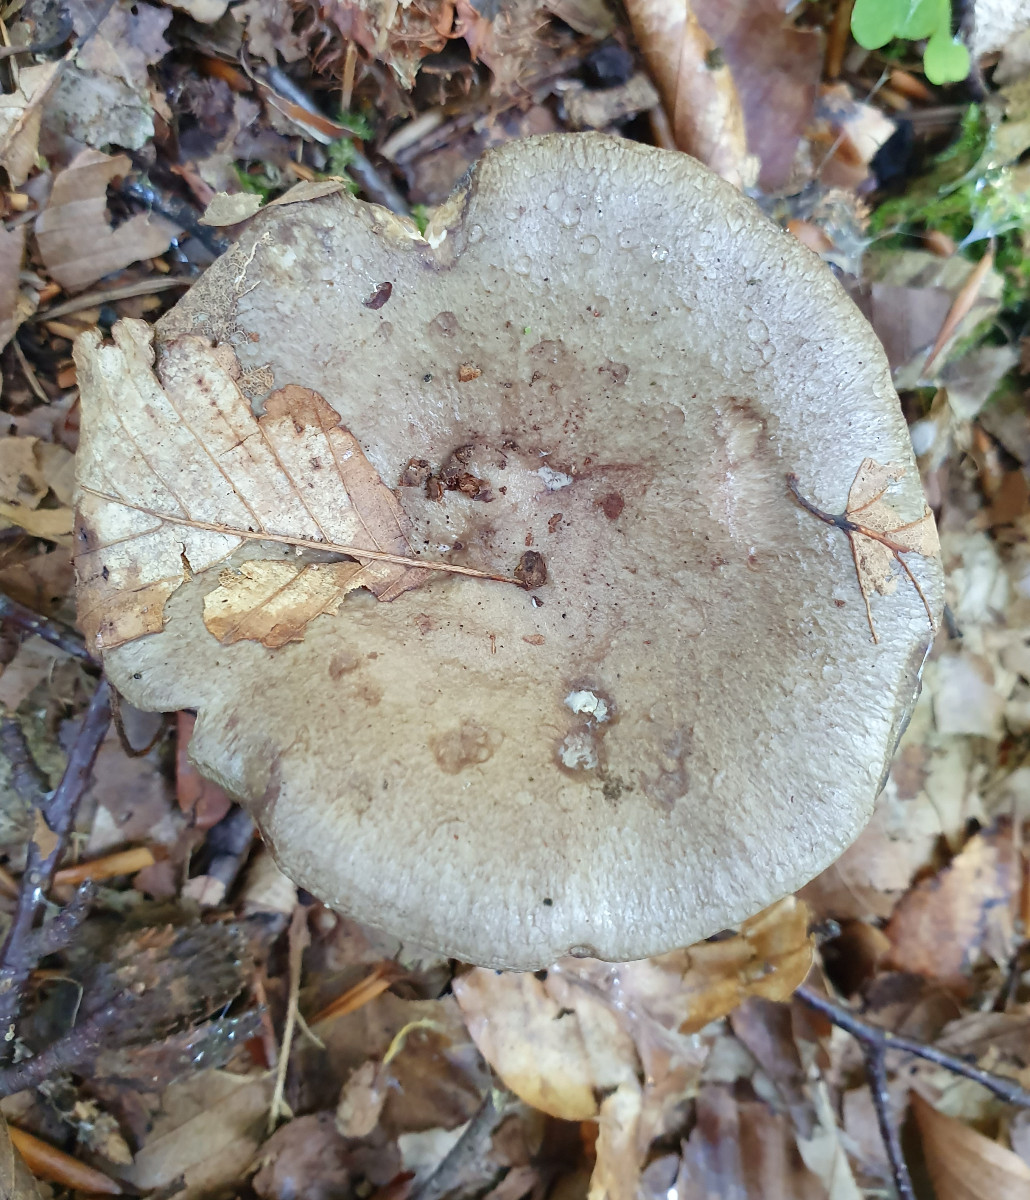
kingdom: Fungi
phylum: Basidiomycota
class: Agaricomycetes
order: Russulales
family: Russulaceae
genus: Lactarius
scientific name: Lactarius blennius
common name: dråbeplettet mælkehat
